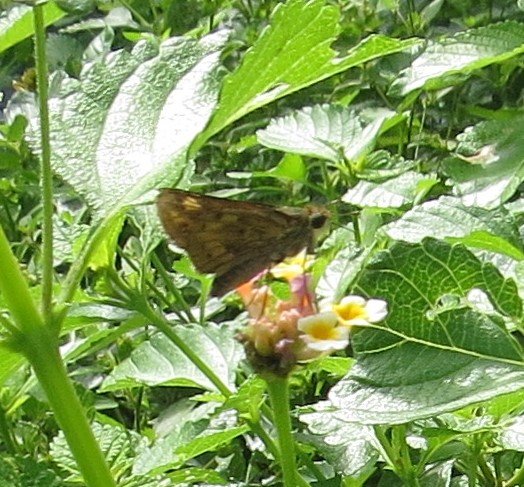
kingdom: Animalia
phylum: Arthropoda
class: Insecta
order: Lepidoptera
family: Hesperiidae
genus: Atalopedes
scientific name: Atalopedes campestris
